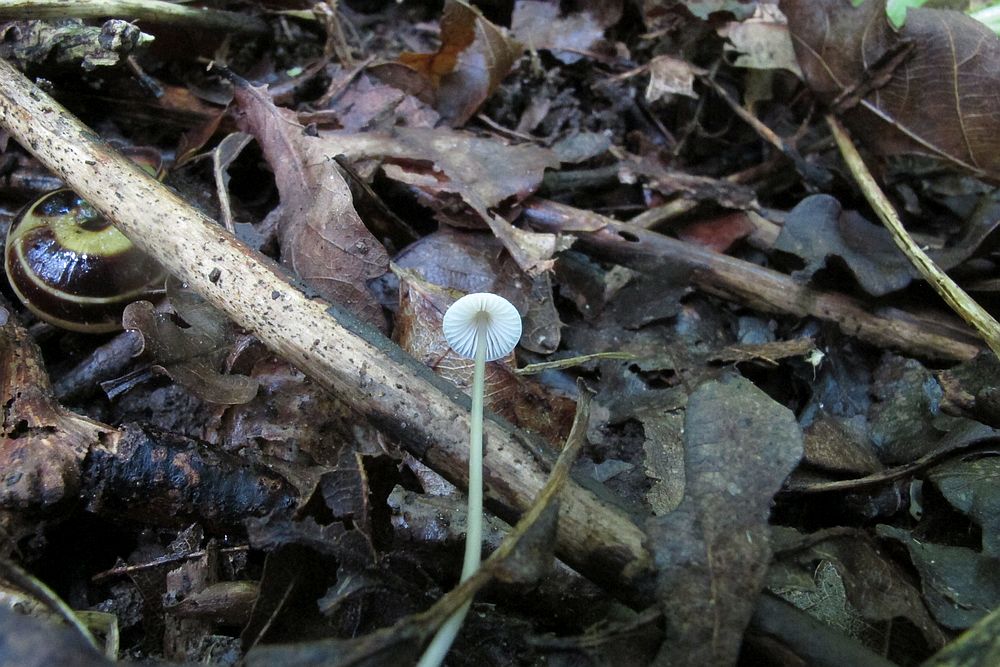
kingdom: Fungi
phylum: Basidiomycota
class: Agaricomycetes
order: Agaricales
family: Mycenaceae
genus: Mycena
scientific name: Mycena vitilis
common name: blankstokket huesvamp
